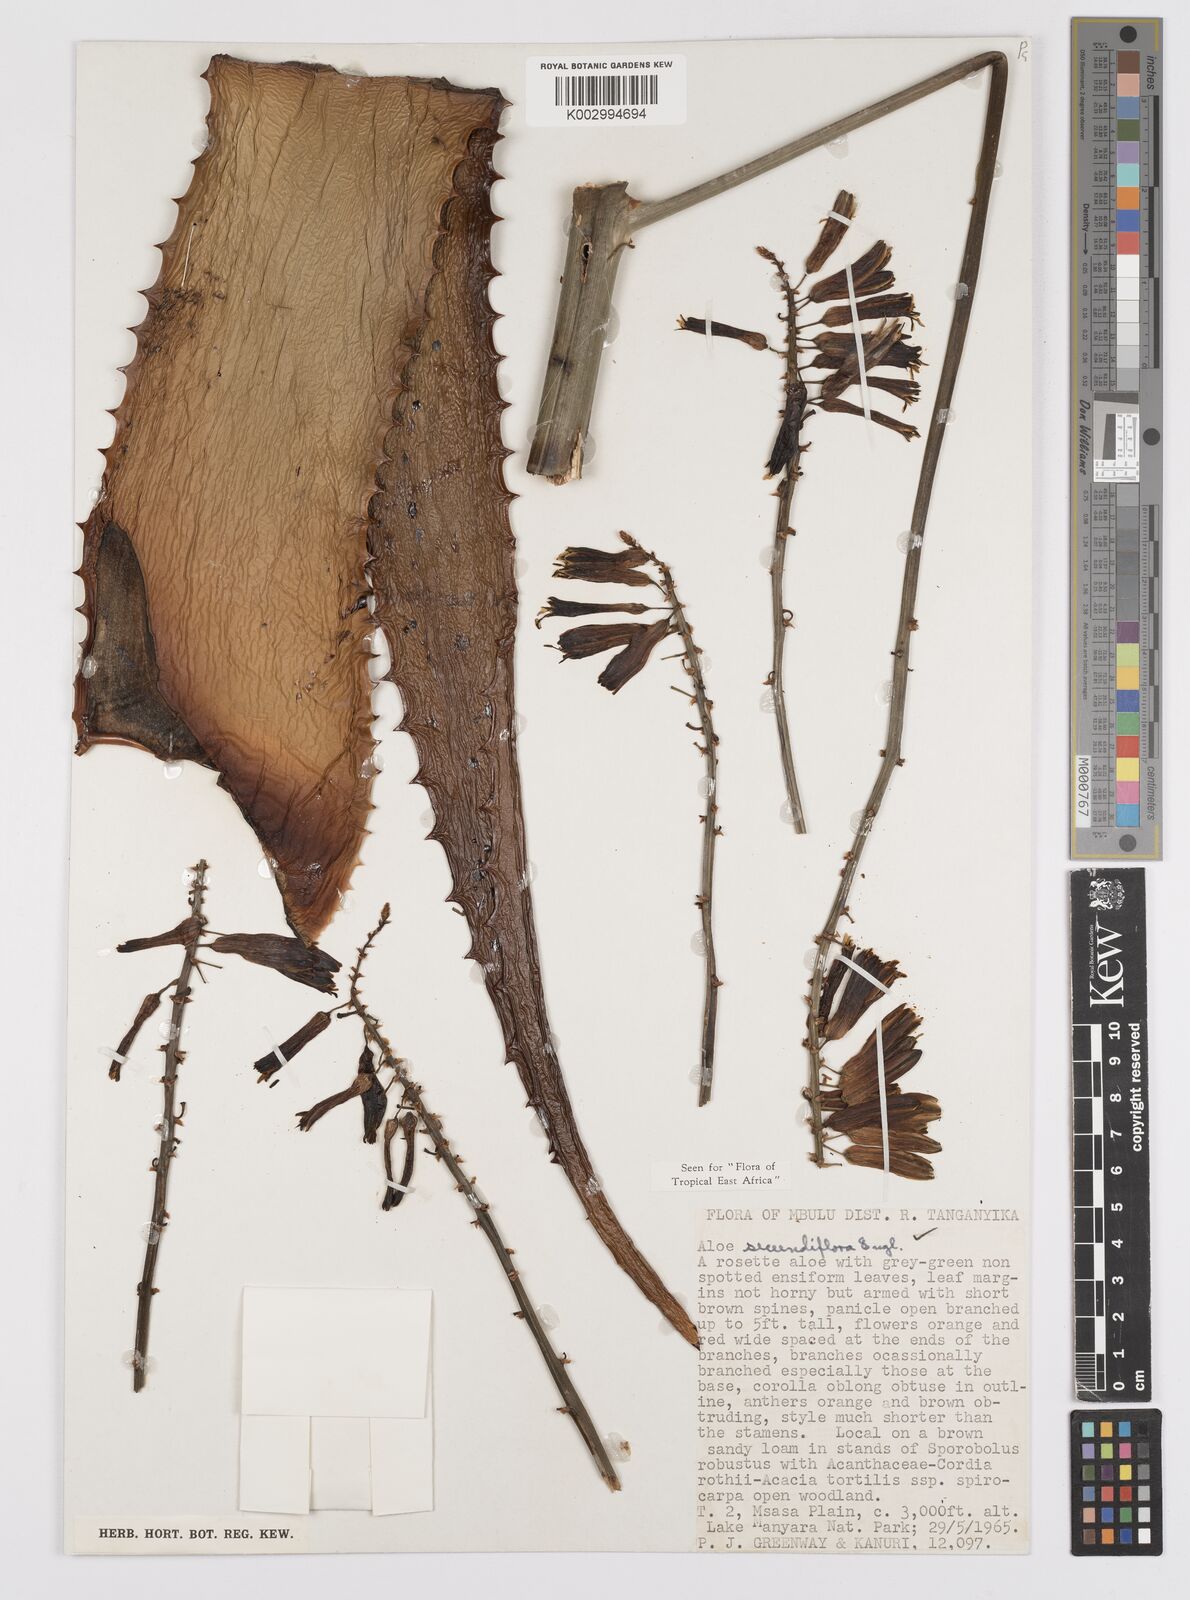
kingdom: Plantae
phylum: Tracheophyta
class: Liliopsida
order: Asparagales
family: Asphodelaceae
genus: Aloe
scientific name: Aloe secundiflora
